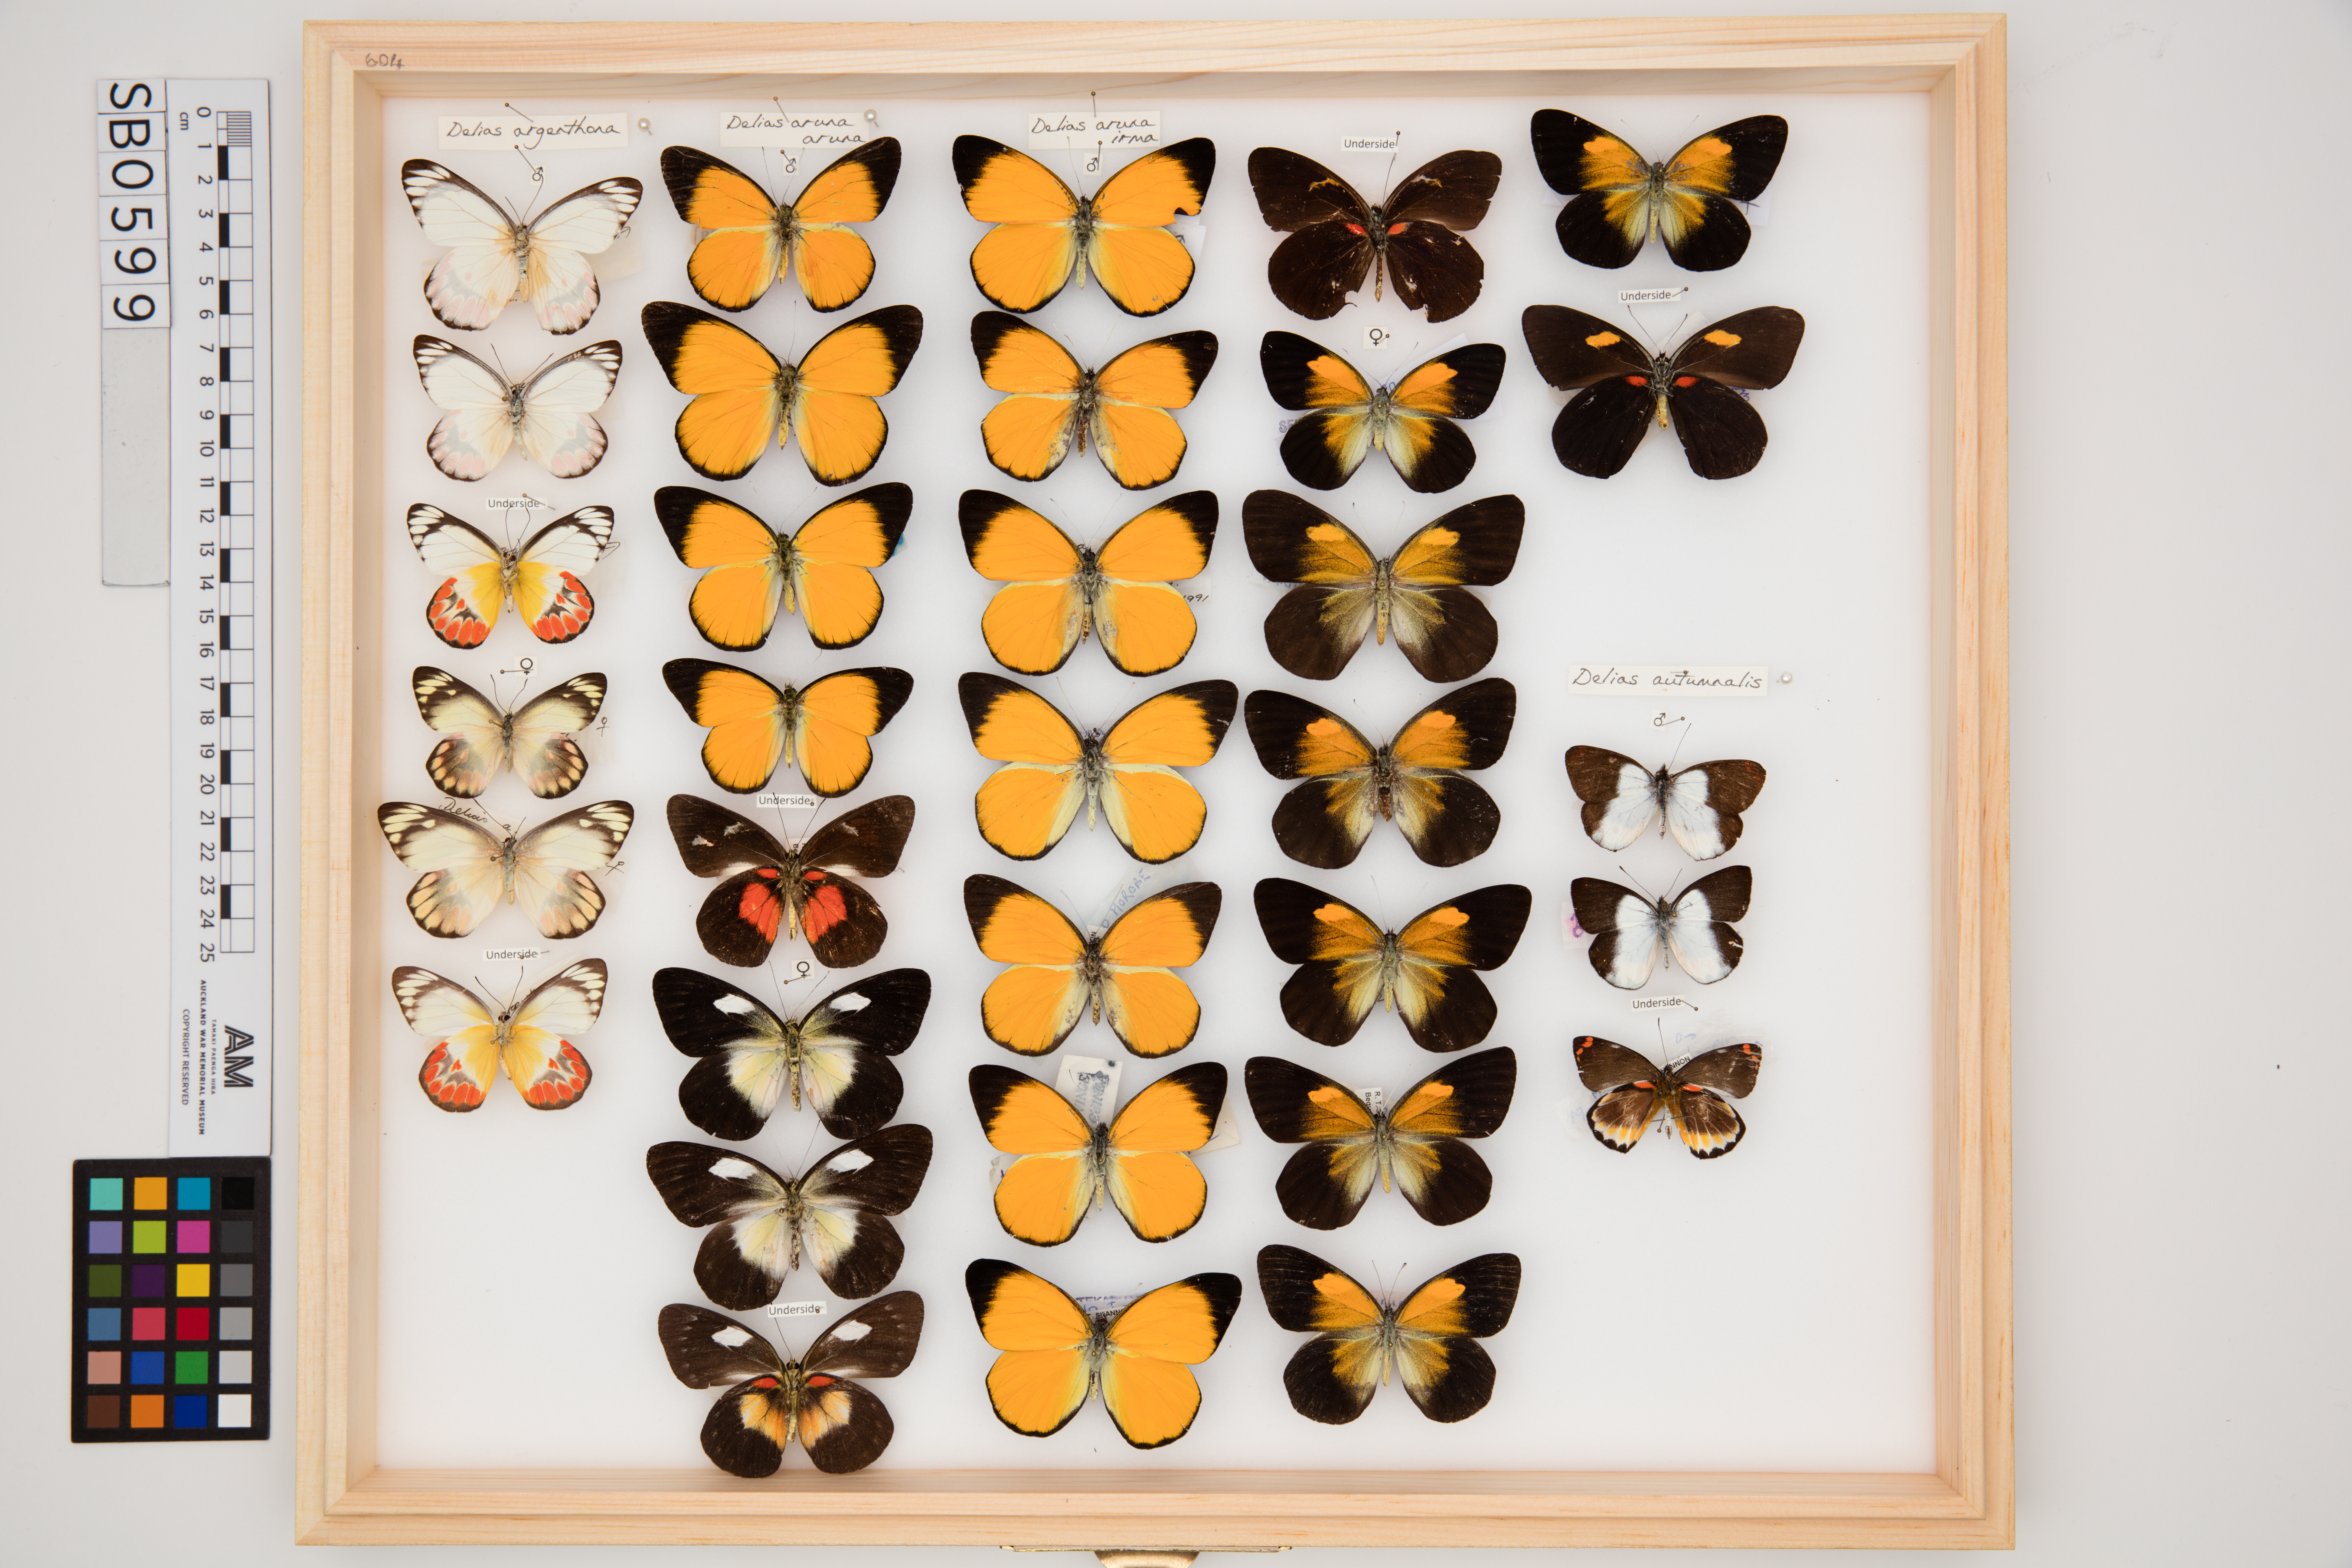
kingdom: Animalia
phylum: Arthropoda
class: Insecta
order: Lepidoptera
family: Pieridae
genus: Delias
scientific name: Delias argenthona
